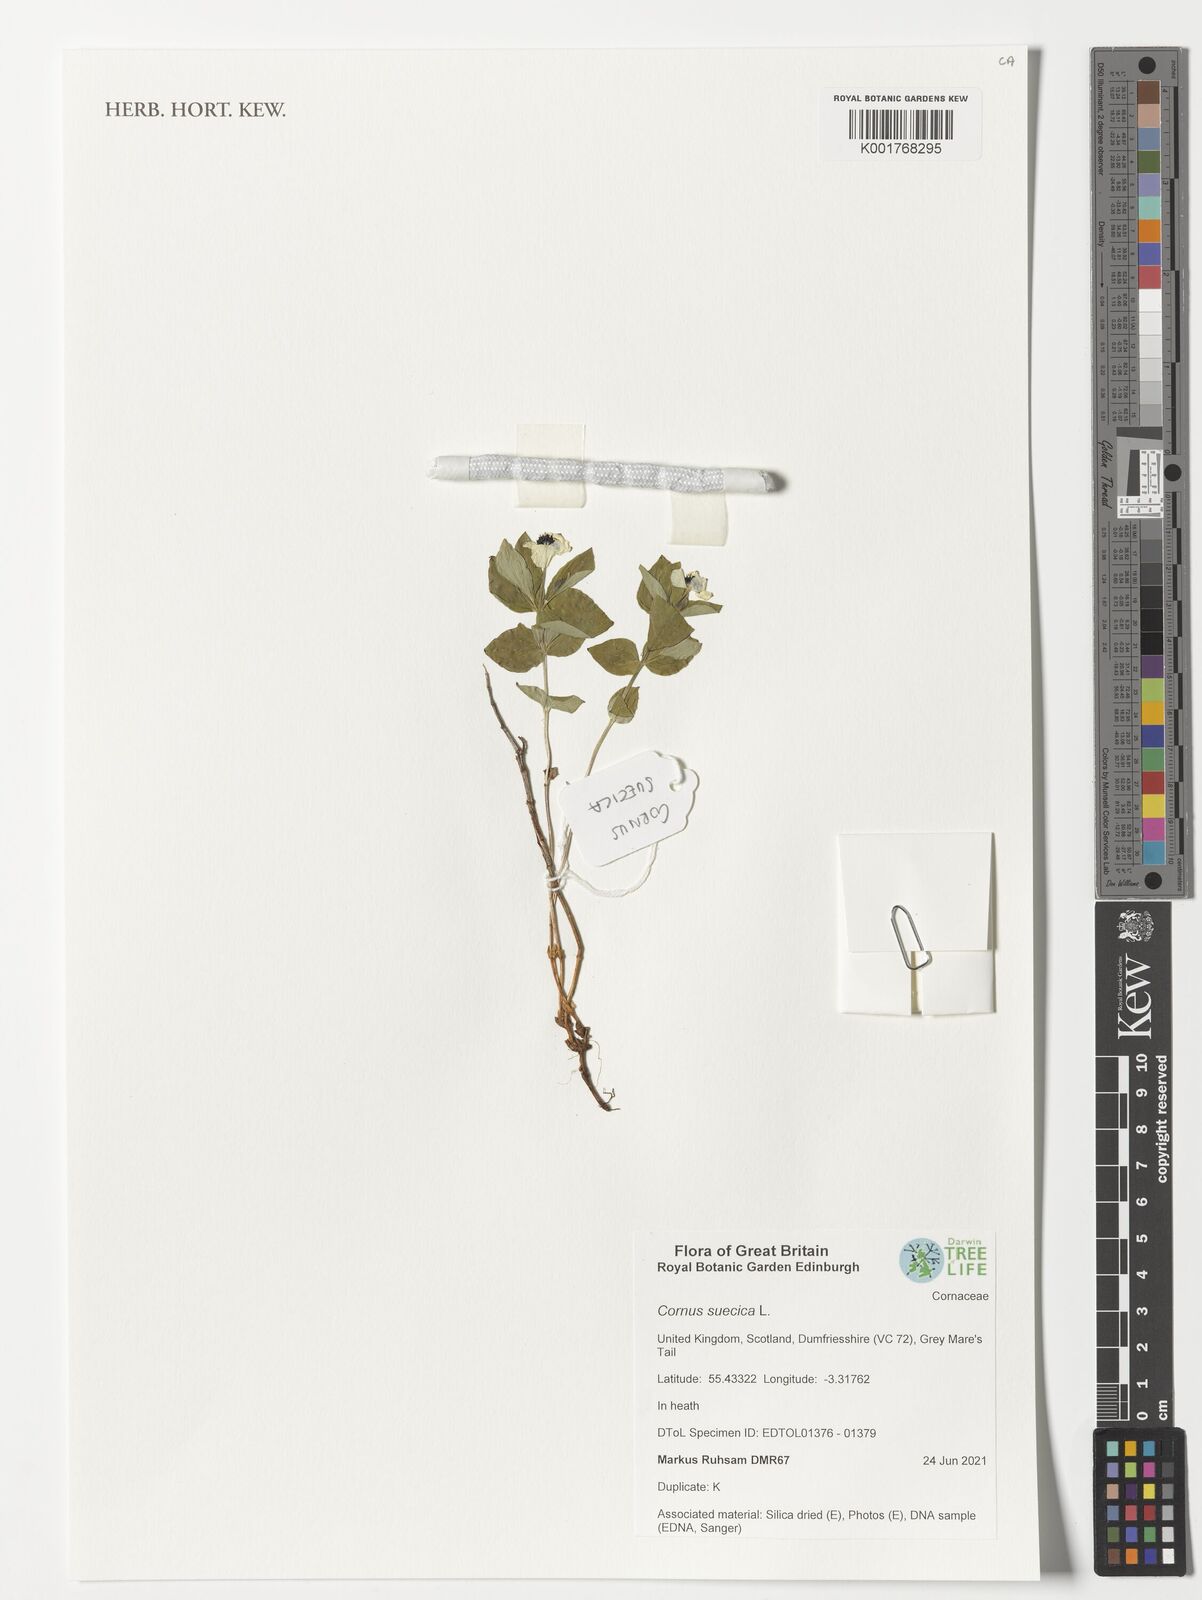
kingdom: Plantae
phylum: Tracheophyta
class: Magnoliopsida
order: Cornales
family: Cornaceae
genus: Cornus
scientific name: Cornus suecica
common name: Dwarf cornel
